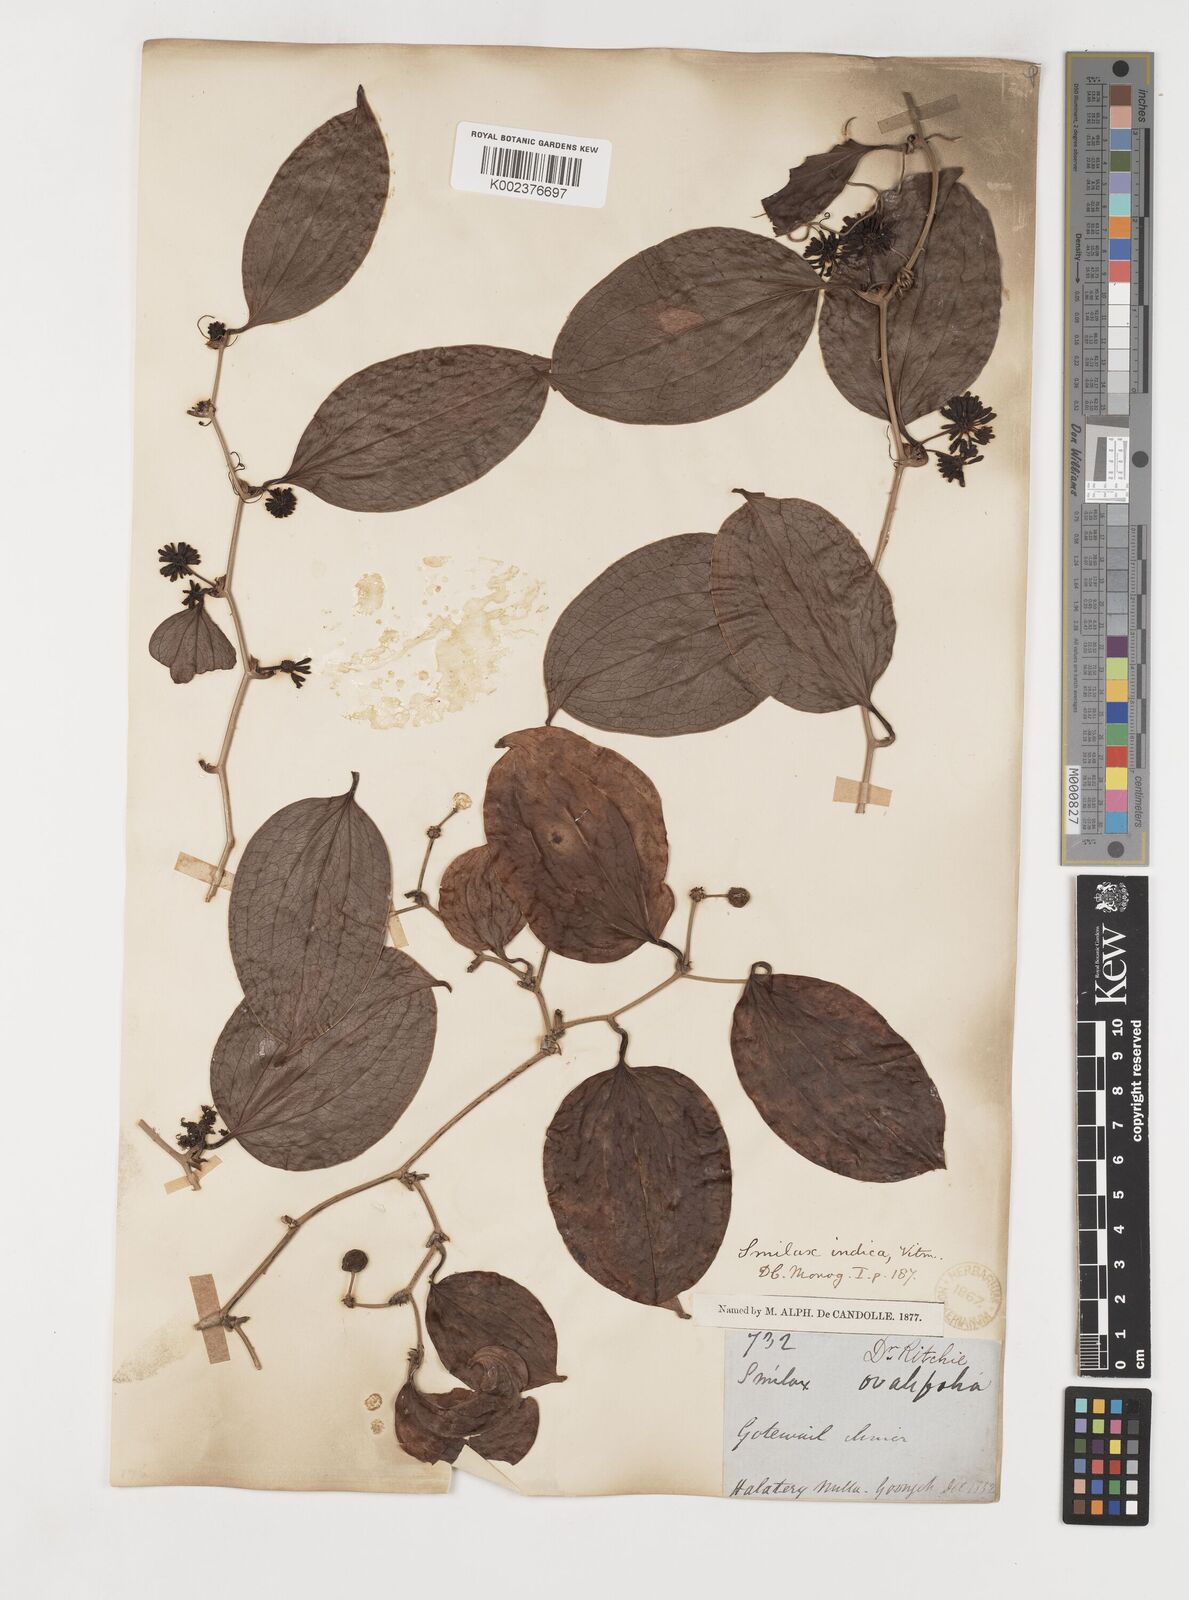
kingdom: Plantae
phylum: Tracheophyta
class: Liliopsida
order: Liliales
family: Smilacaceae
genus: Smilax
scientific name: Smilax zeylanica
